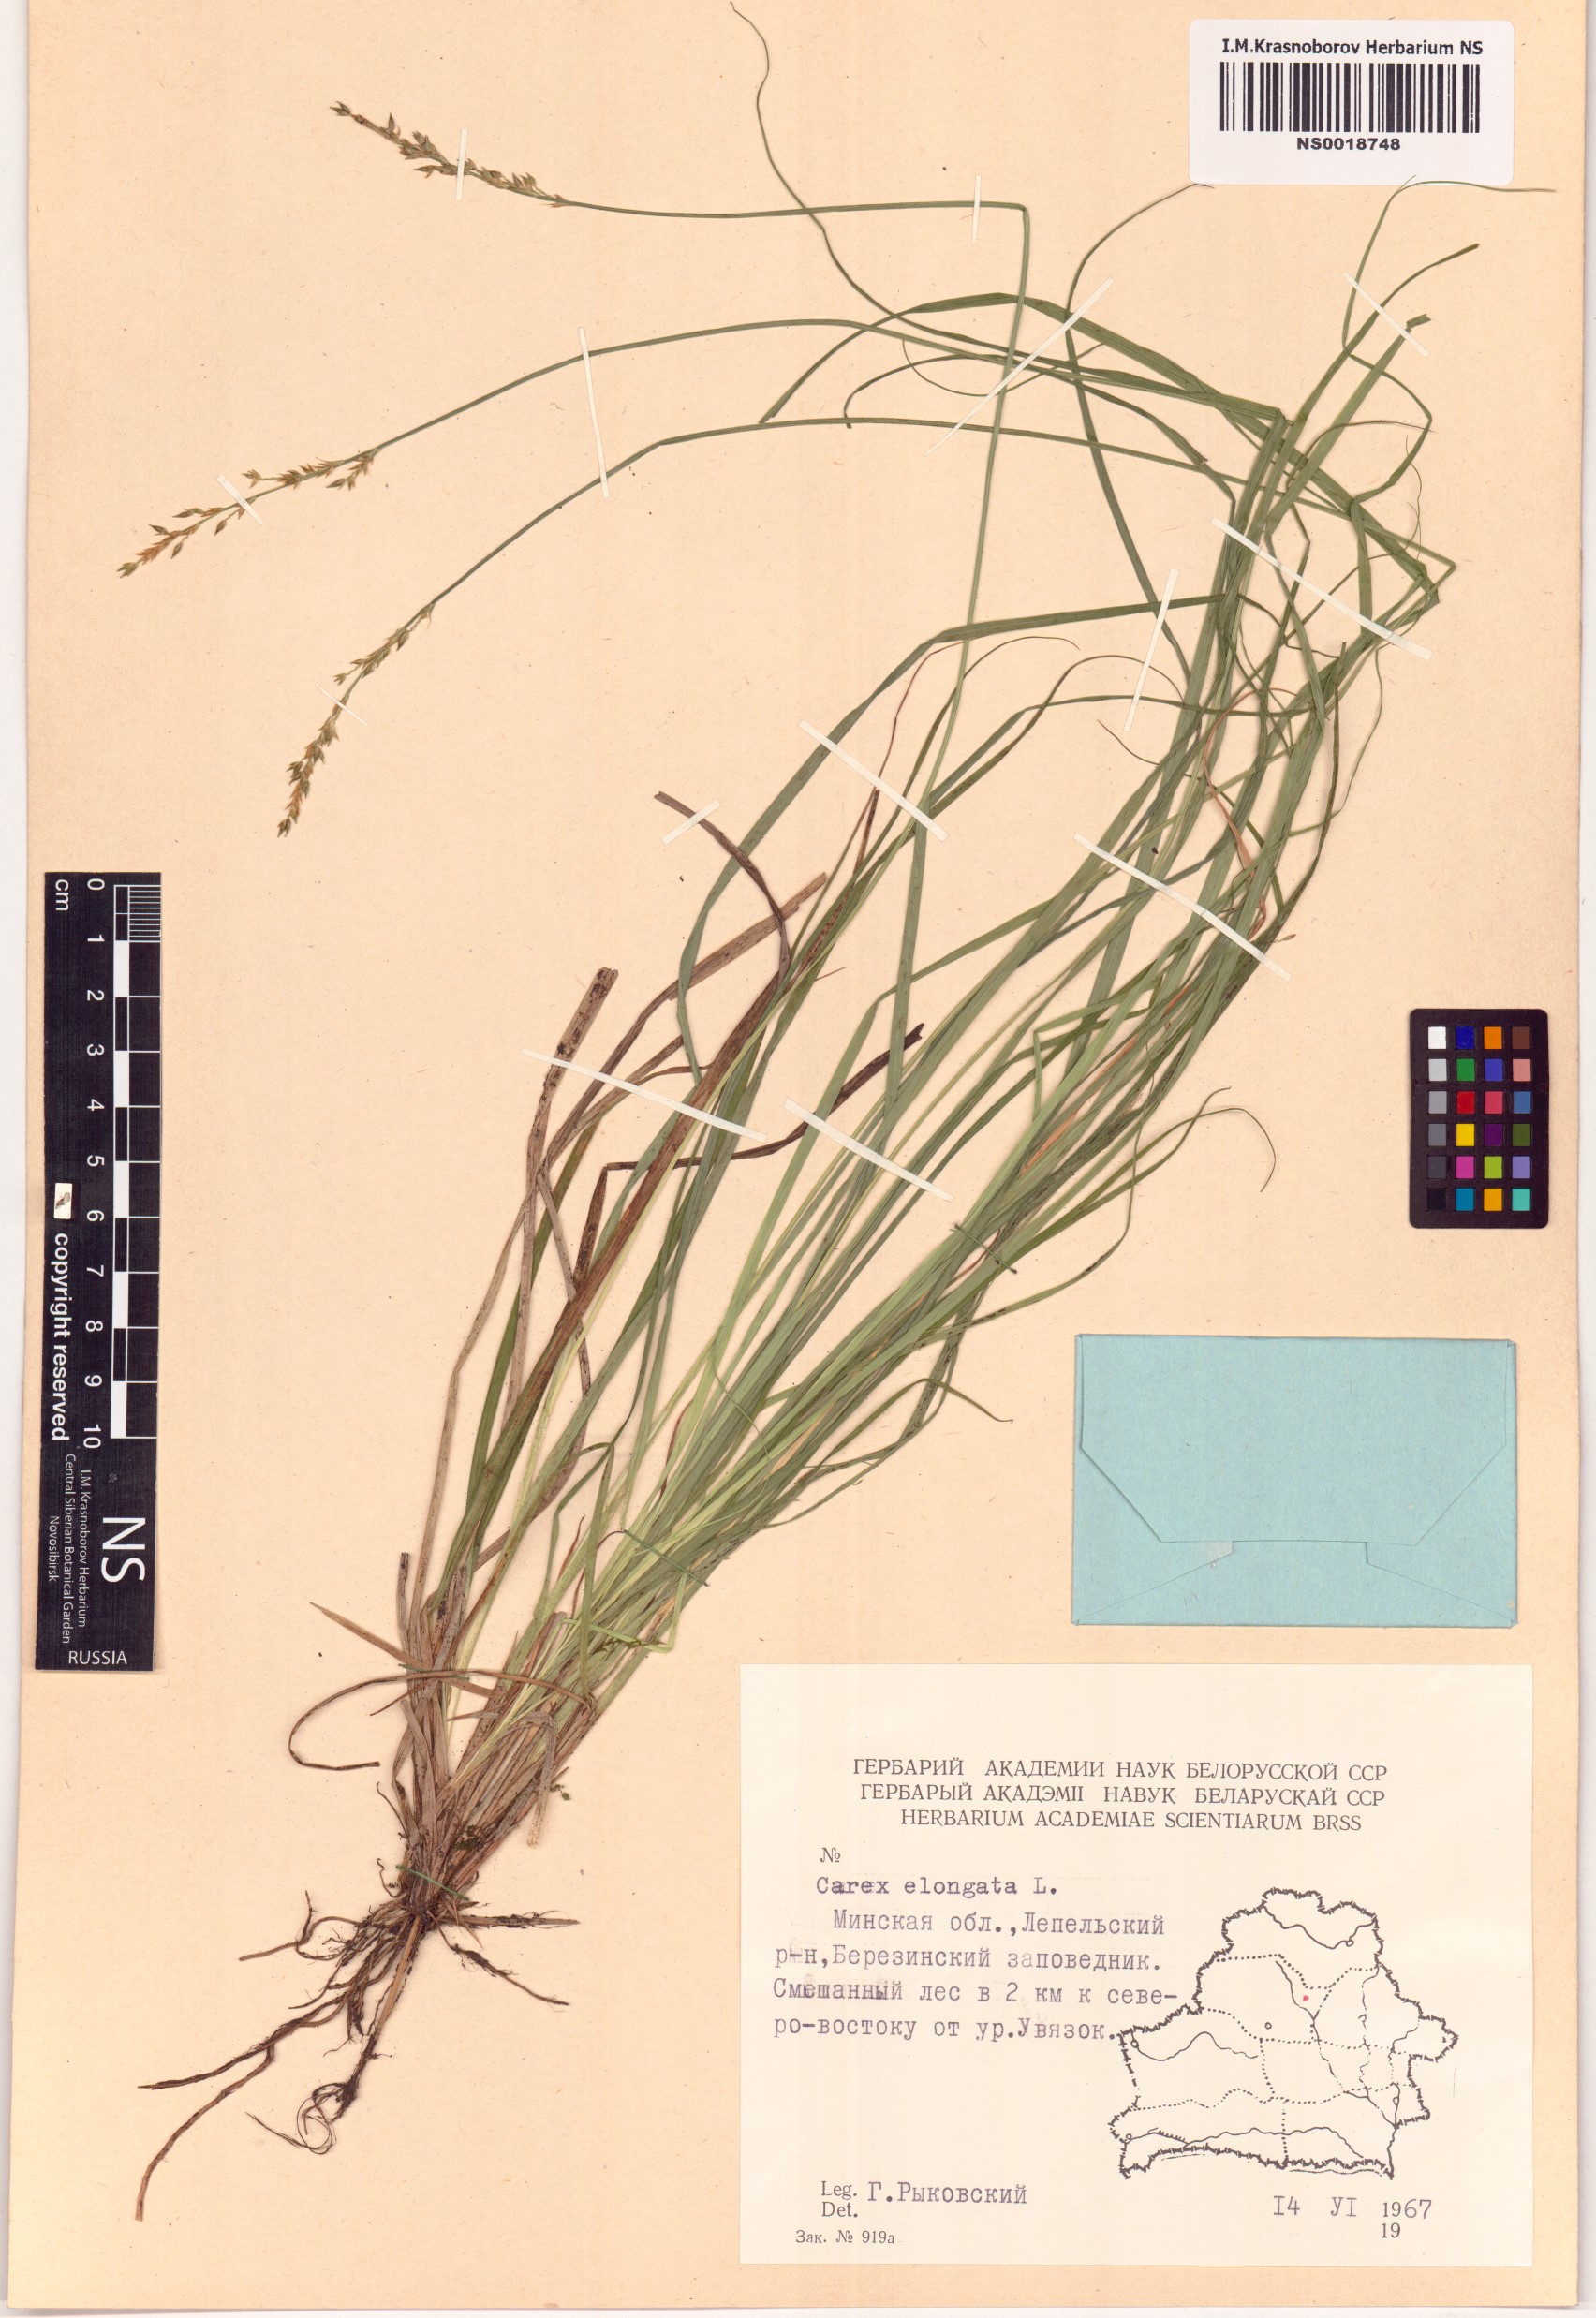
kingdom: Plantae
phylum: Tracheophyta
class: Liliopsida
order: Poales
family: Cyperaceae
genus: Carex
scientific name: Carex elongata
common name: Elongated sedge
